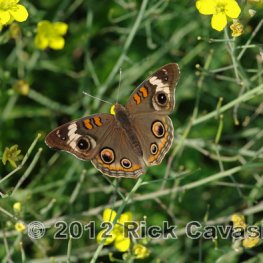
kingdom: Animalia
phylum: Arthropoda
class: Insecta
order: Lepidoptera
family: Nymphalidae
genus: Junonia
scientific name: Junonia coenia
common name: Common Buckeye
